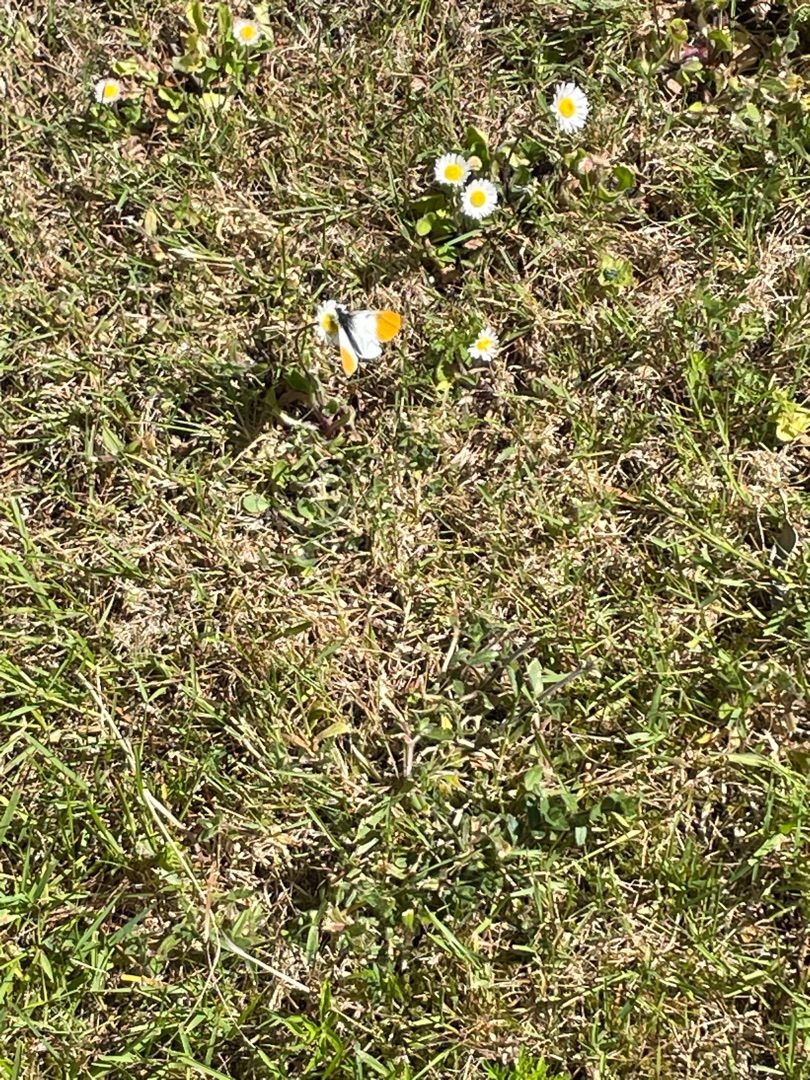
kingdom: Animalia
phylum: Arthropoda
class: Insecta
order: Lepidoptera
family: Pieridae
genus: Anthocharis
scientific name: Anthocharis cardamines
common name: Aurora
